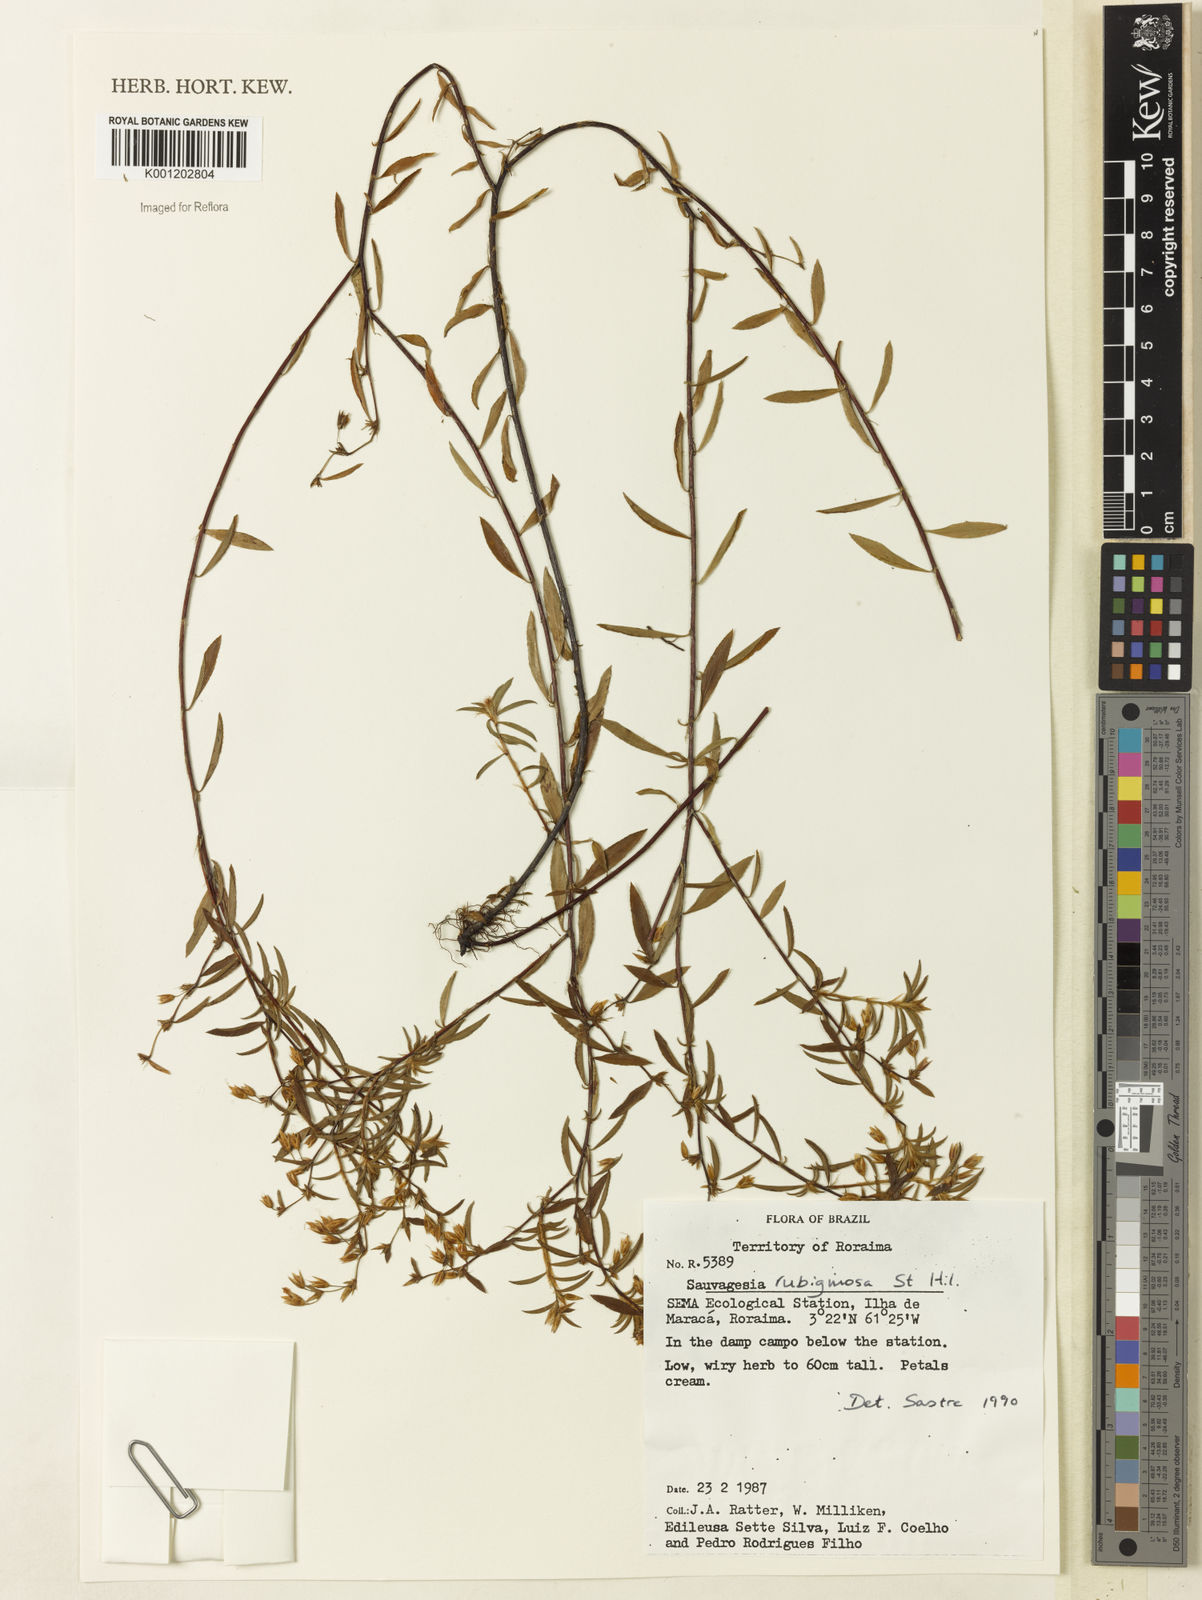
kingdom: Plantae
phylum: Tracheophyta
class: Magnoliopsida
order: Malpighiales
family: Ochnaceae
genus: Sauvagesia
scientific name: Sauvagesia rubiginosa
